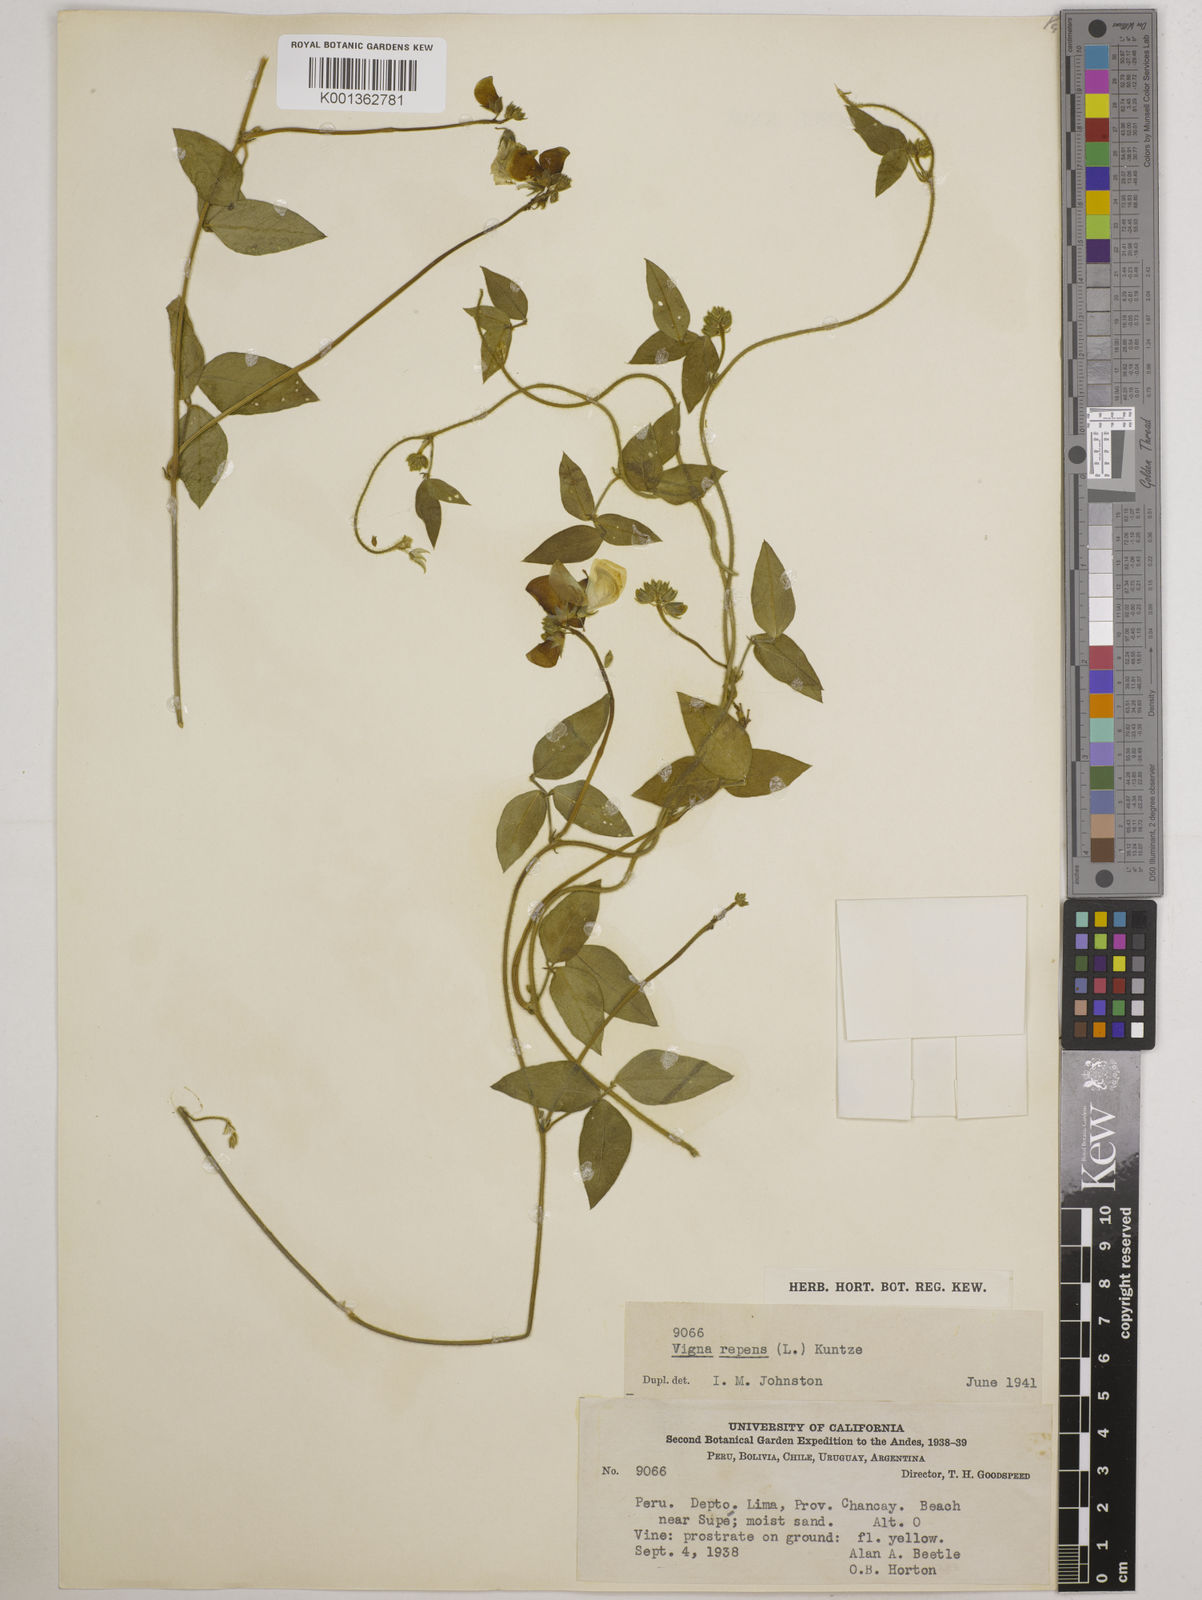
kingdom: Plantae
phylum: Tracheophyta
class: Magnoliopsida
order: Fabales
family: Fabaceae
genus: Vigna
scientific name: Vigna luteola
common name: Hairypod cowpea
